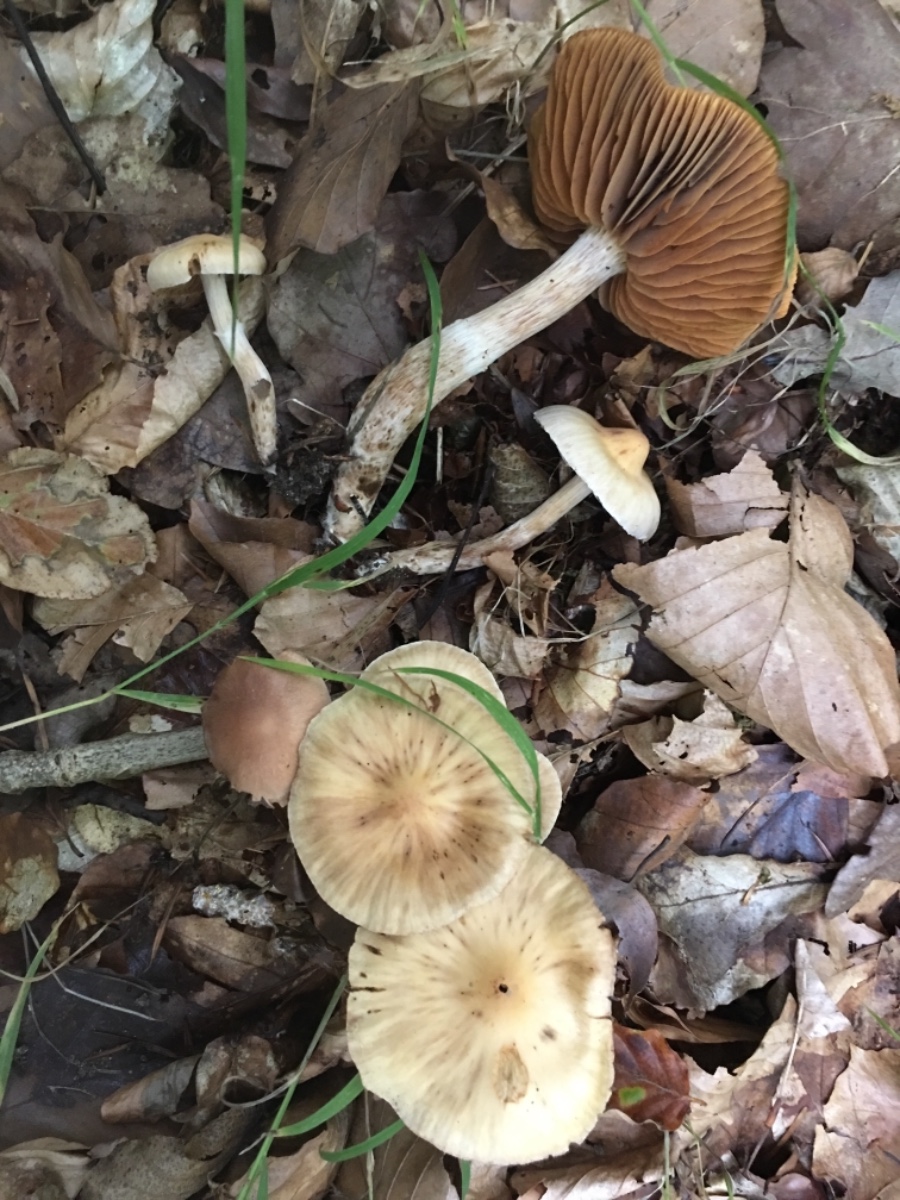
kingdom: Fungi
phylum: Basidiomycota
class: Agaricomycetes
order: Agaricales
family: Cortinariaceae
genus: Cortinarius
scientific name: Cortinarius
